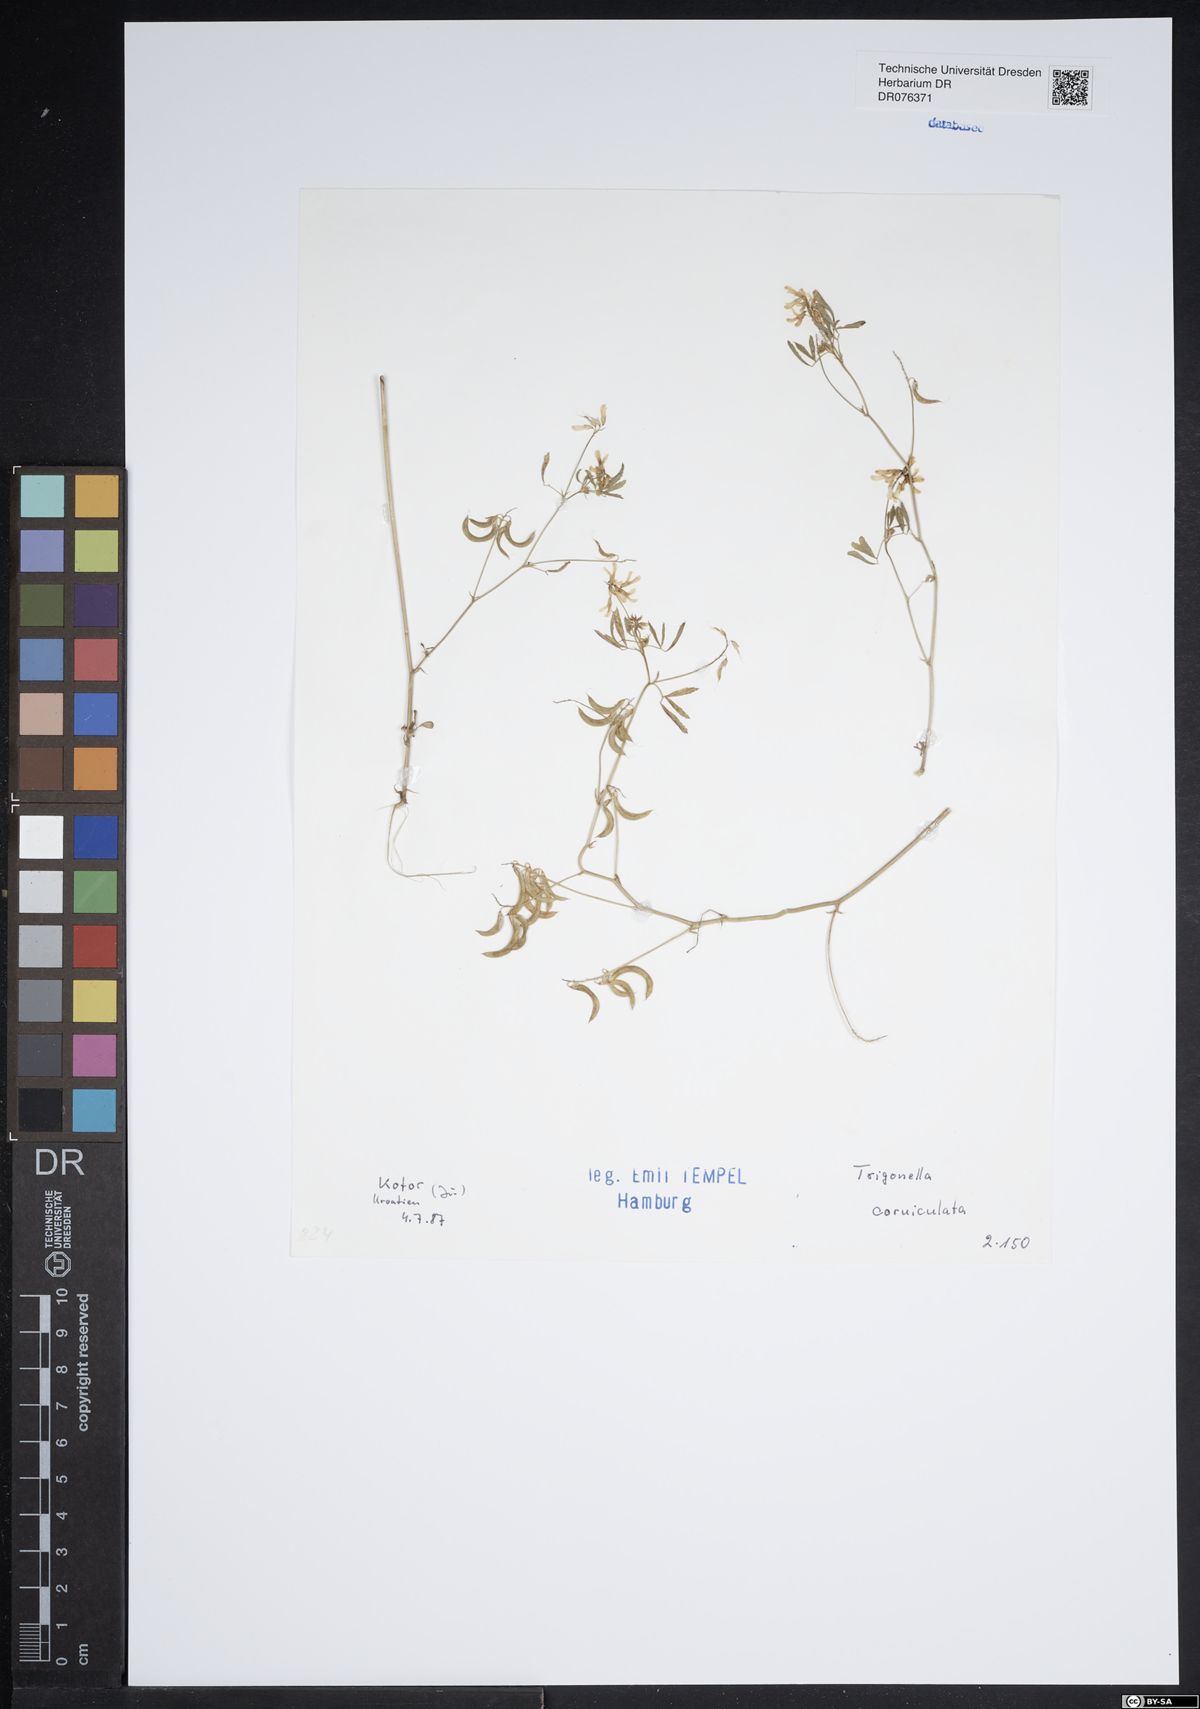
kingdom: Plantae
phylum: Tracheophyta
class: Magnoliopsida
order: Fabales
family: Fabaceae
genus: Trigonella
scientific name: Trigonella balansae
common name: Sickle-fruited fenugreek
